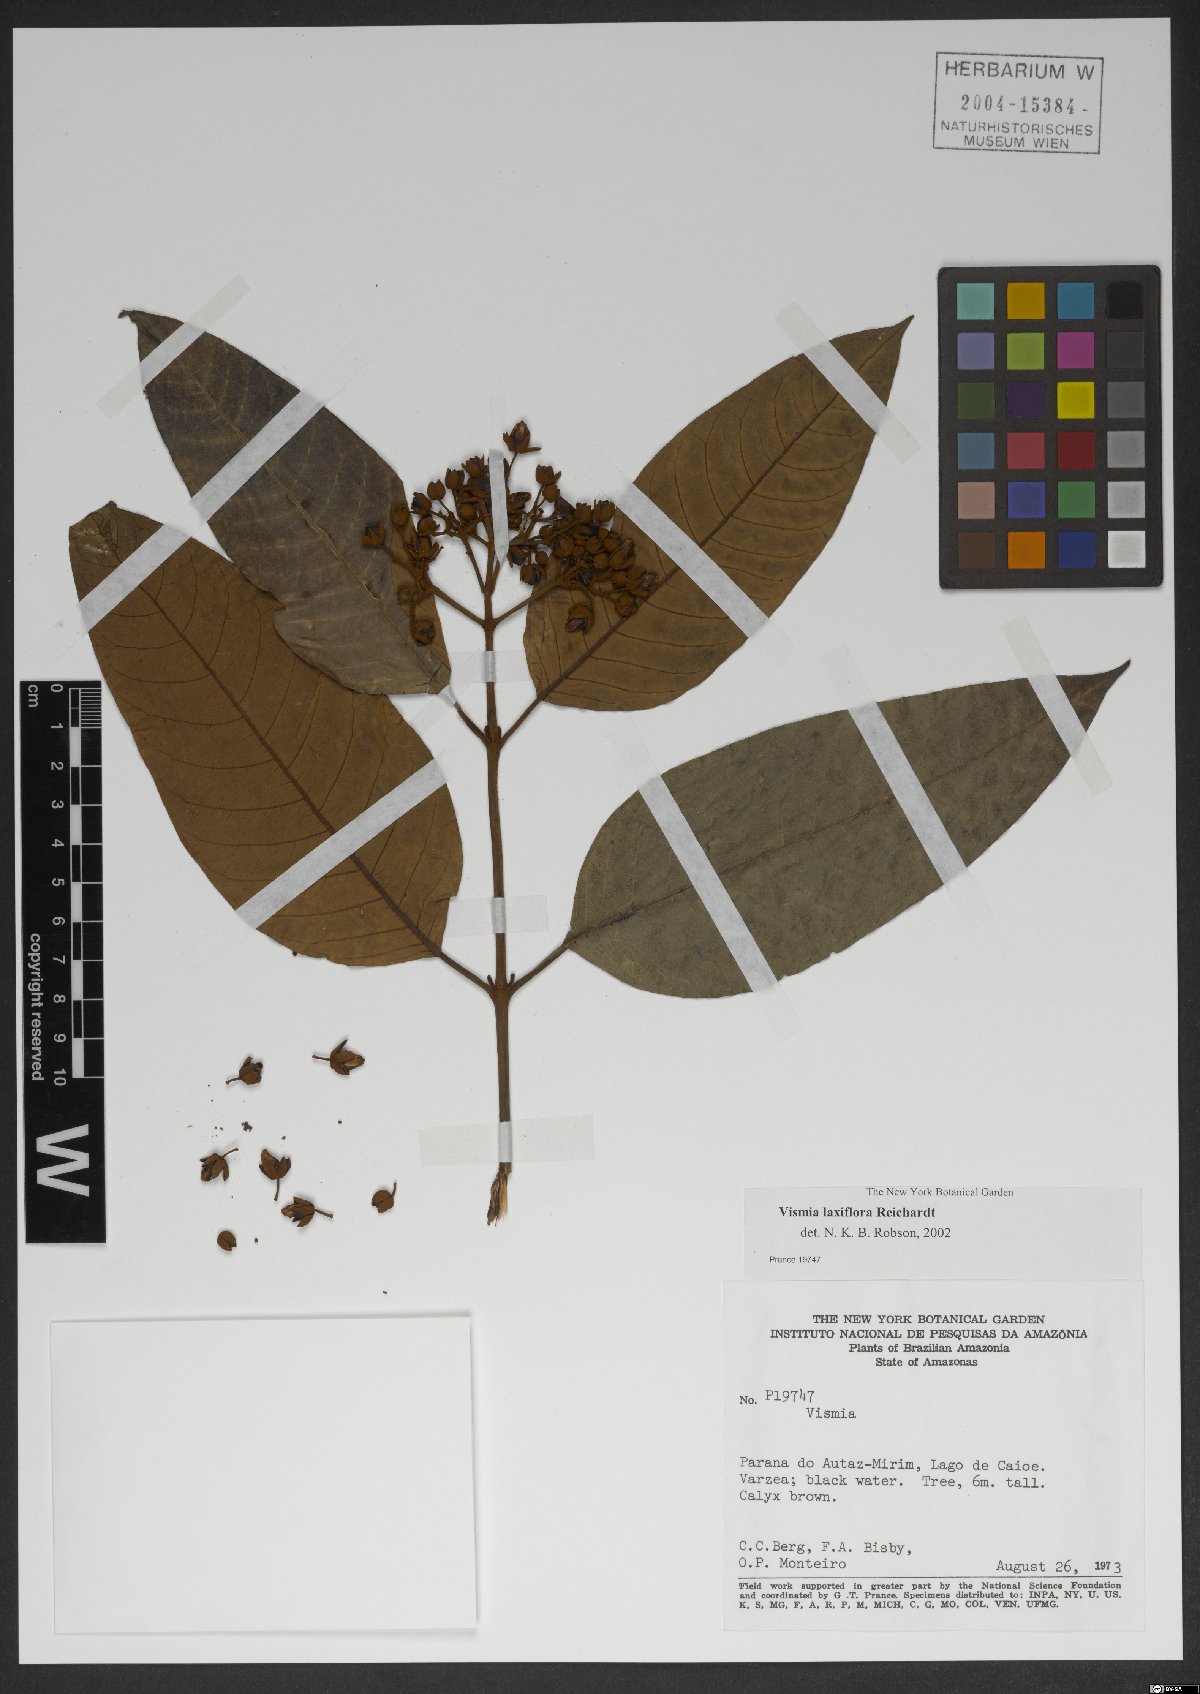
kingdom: Plantae
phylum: Tracheophyta
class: Magnoliopsida
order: Malpighiales
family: Hypericaceae
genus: Vismia
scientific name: Vismia latifolia
